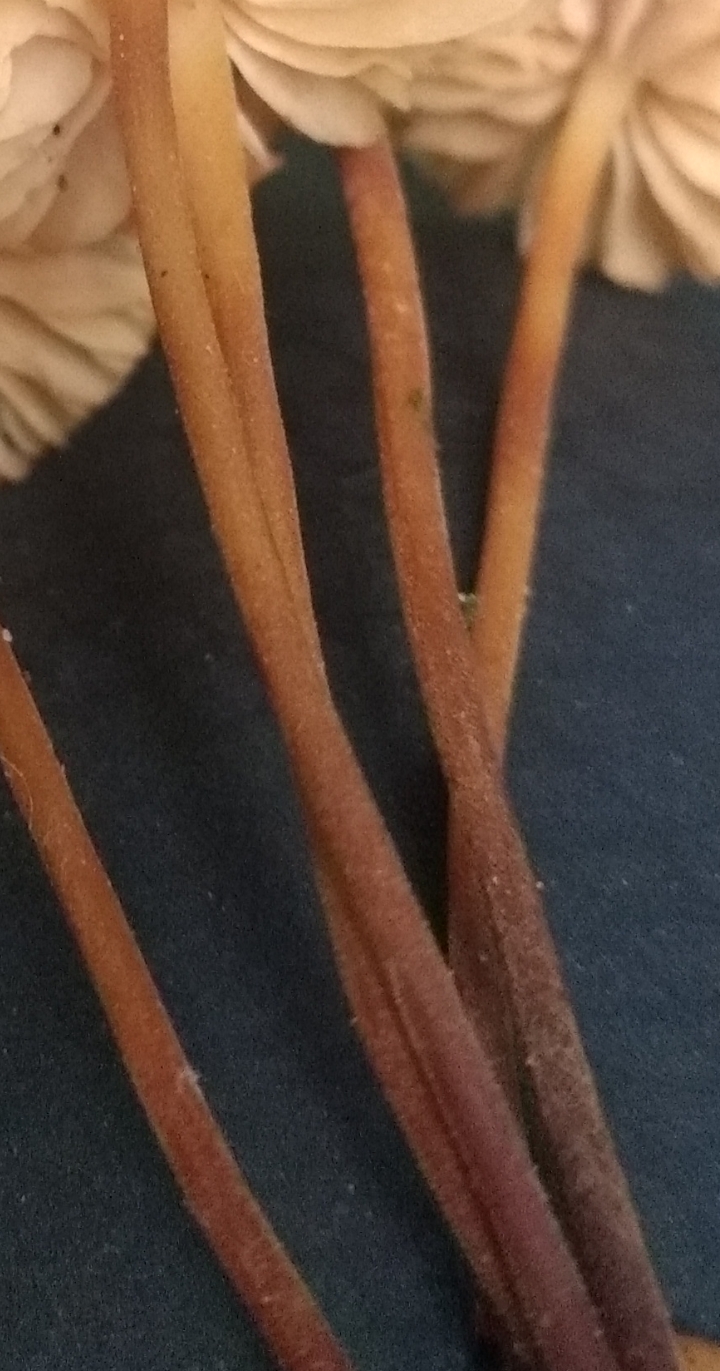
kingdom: Fungi
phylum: Basidiomycota
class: Agaricomycetes
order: Agaricales
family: Marasmiaceae
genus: Marasmius
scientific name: Marasmius torquescens
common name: filtfodet bruskhat
